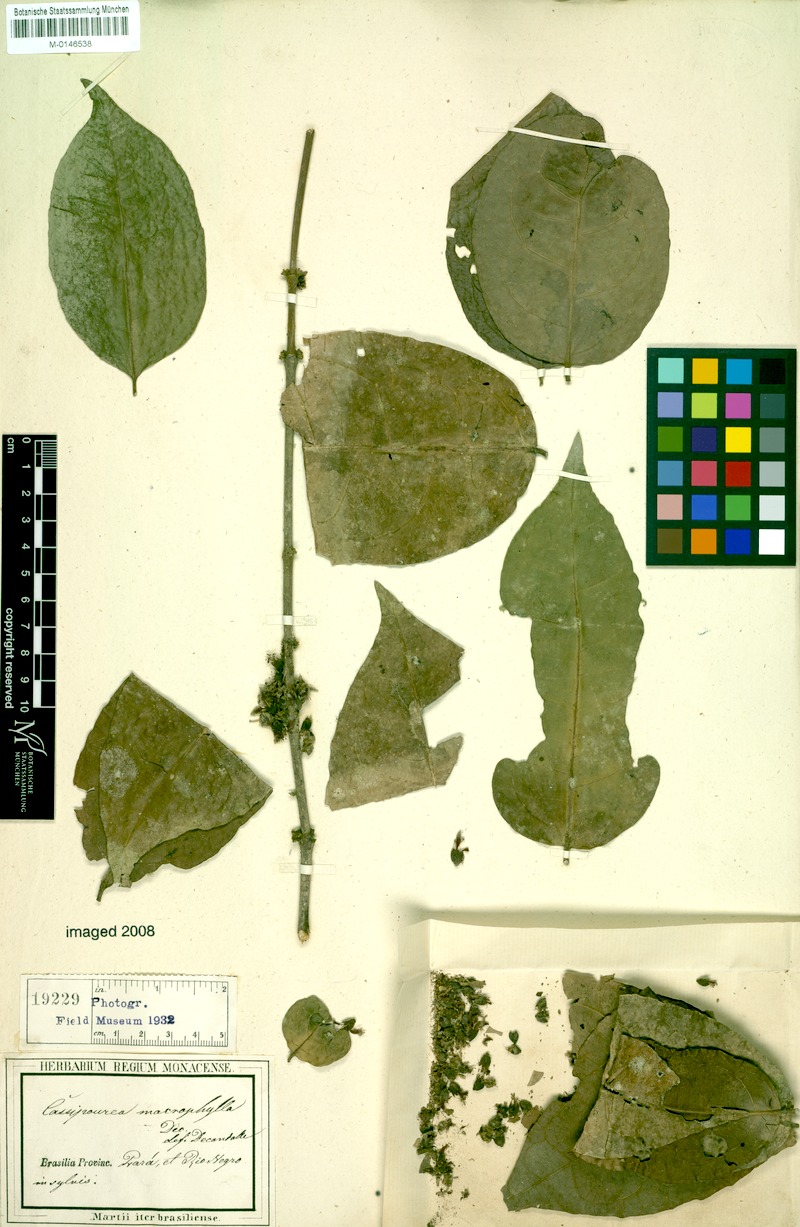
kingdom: Plantae
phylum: Tracheophyta
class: Magnoliopsida
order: Malpighiales
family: Rhizophoraceae
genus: Cassipourea
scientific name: Cassipourea guianensis
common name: Bastard waterwood
